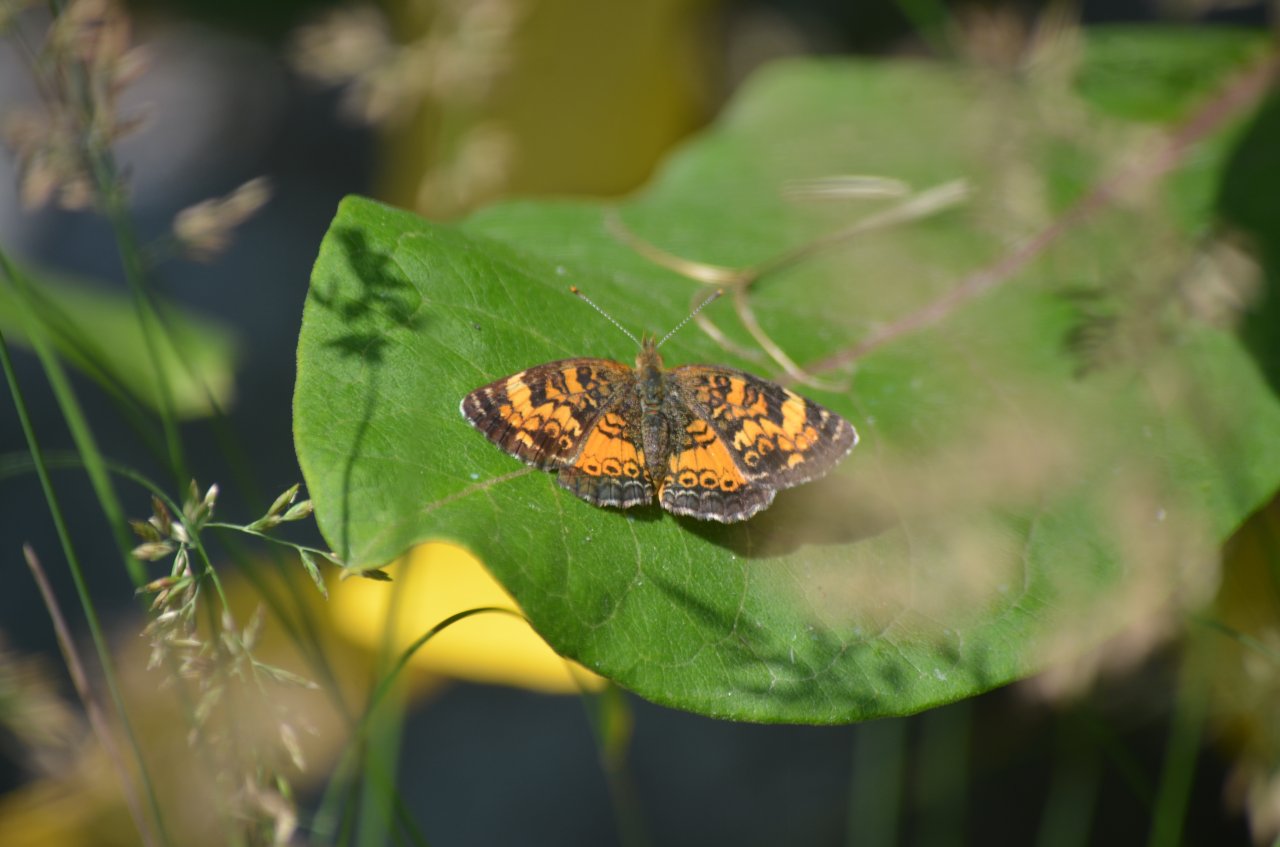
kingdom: Animalia
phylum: Arthropoda
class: Insecta
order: Lepidoptera
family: Nymphalidae
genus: Phyciodes
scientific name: Phyciodes tharos
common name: Northern Crescent
